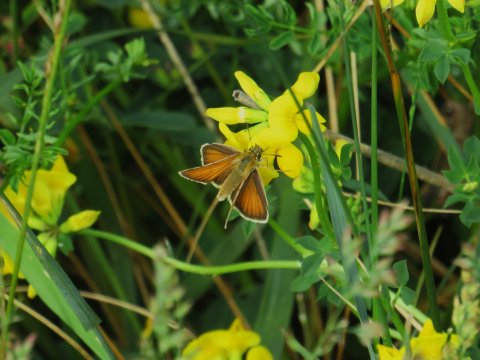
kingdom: Animalia
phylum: Arthropoda
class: Insecta
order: Lepidoptera
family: Hesperiidae
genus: Thymelicus
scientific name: Thymelicus lineola
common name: European Skipper
